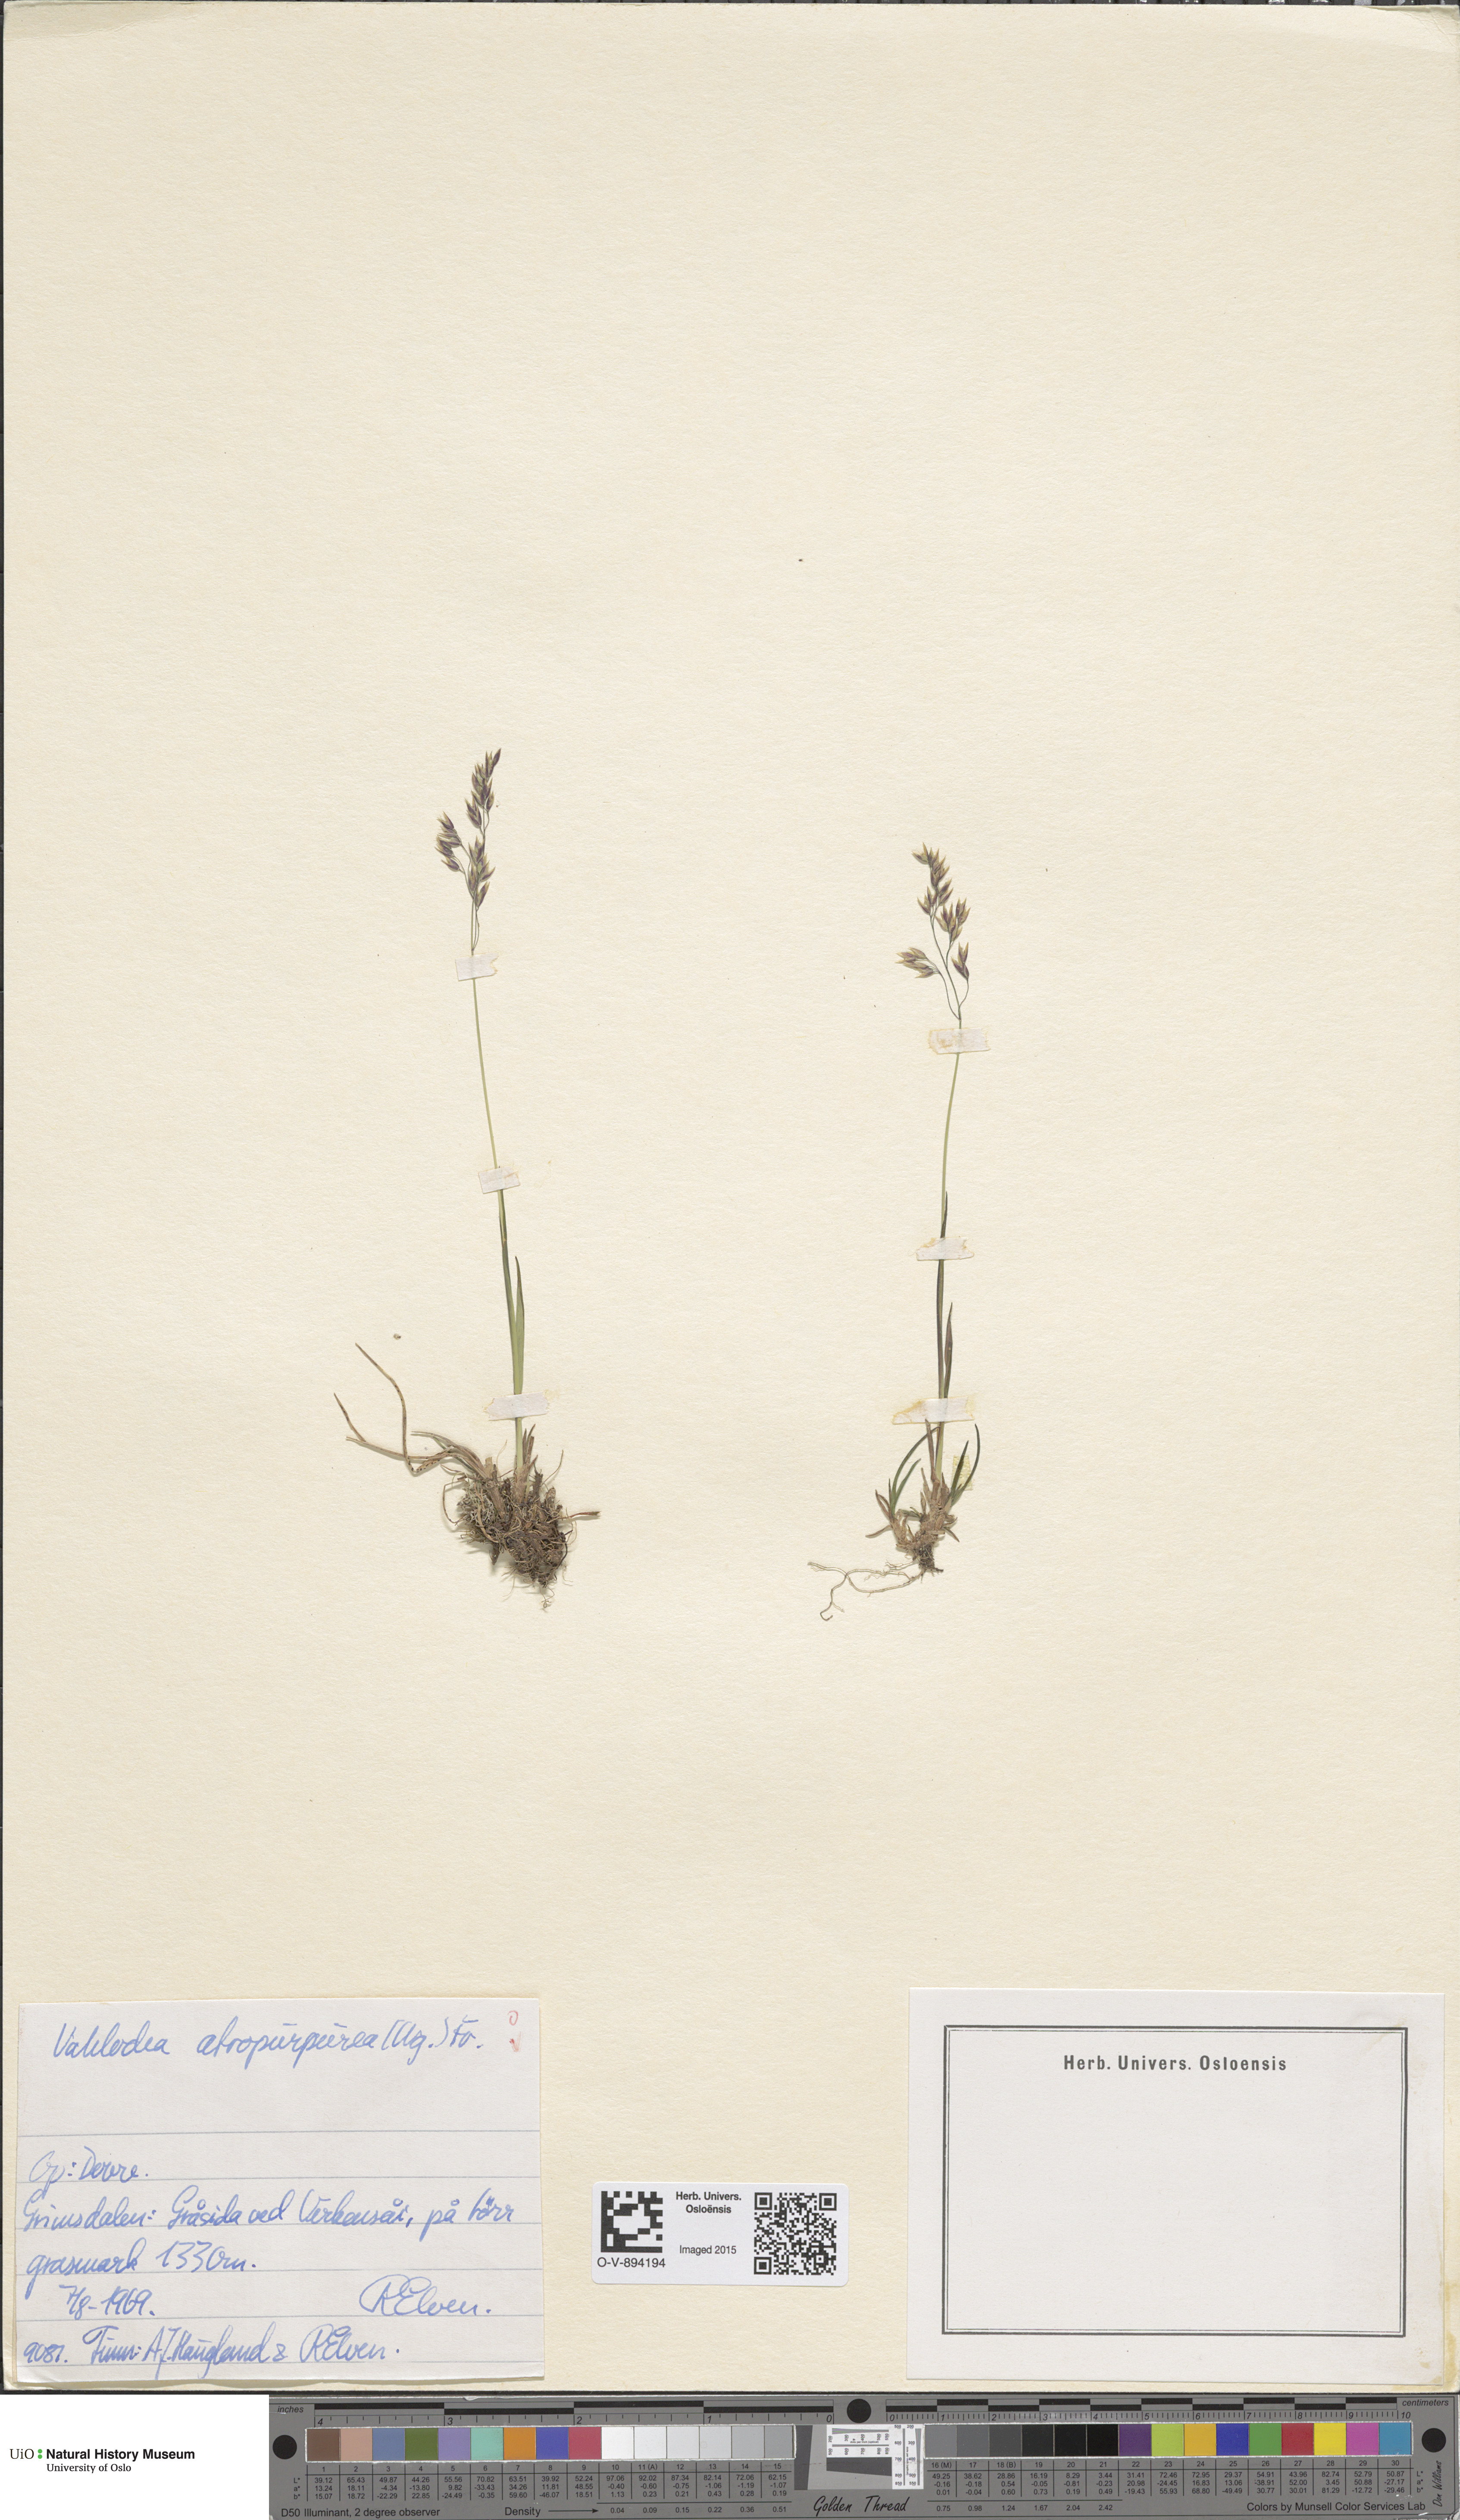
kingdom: Plantae
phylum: Tracheophyta
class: Liliopsida
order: Poales
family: Poaceae
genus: Vahlodea
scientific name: Vahlodea atropurpurea
